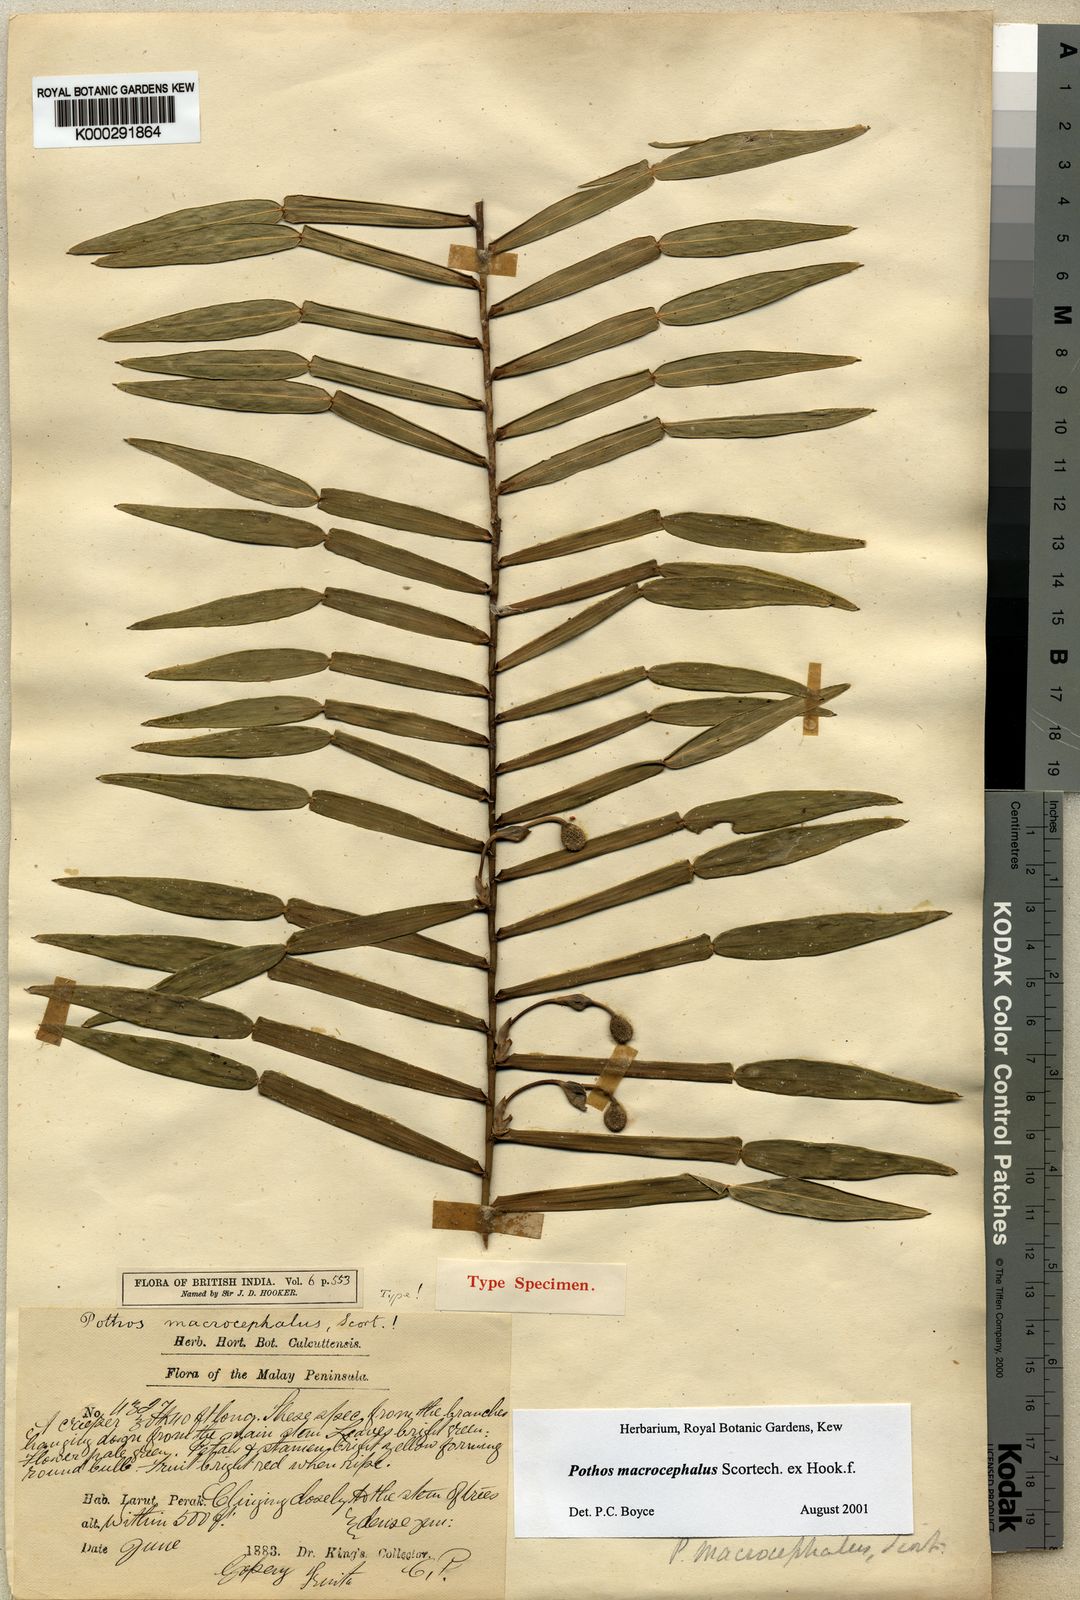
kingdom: Plantae
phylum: Tracheophyta
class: Liliopsida
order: Alismatales
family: Araceae
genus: Pothos
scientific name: Pothos macrocephalus
